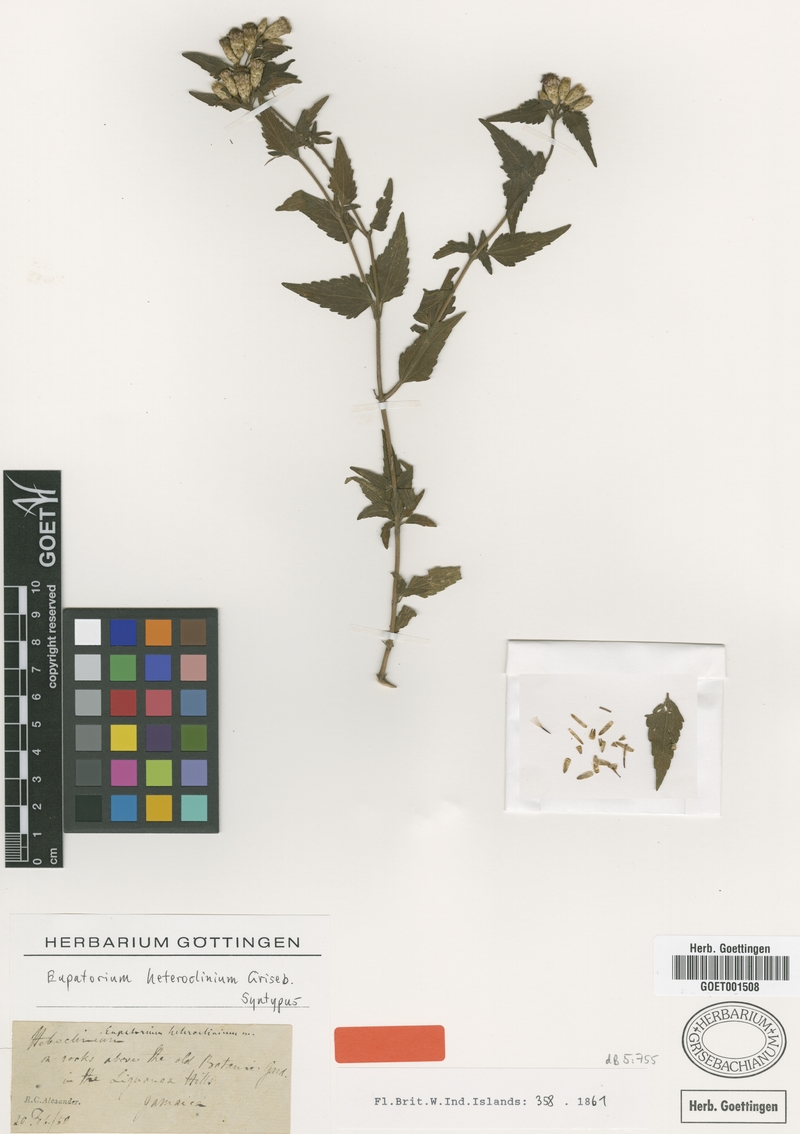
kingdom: Plantae
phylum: Tracheophyta
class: Magnoliopsida
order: Asterales
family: Asteraceae
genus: Chromolaena
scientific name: Chromolaena heteroclinia
